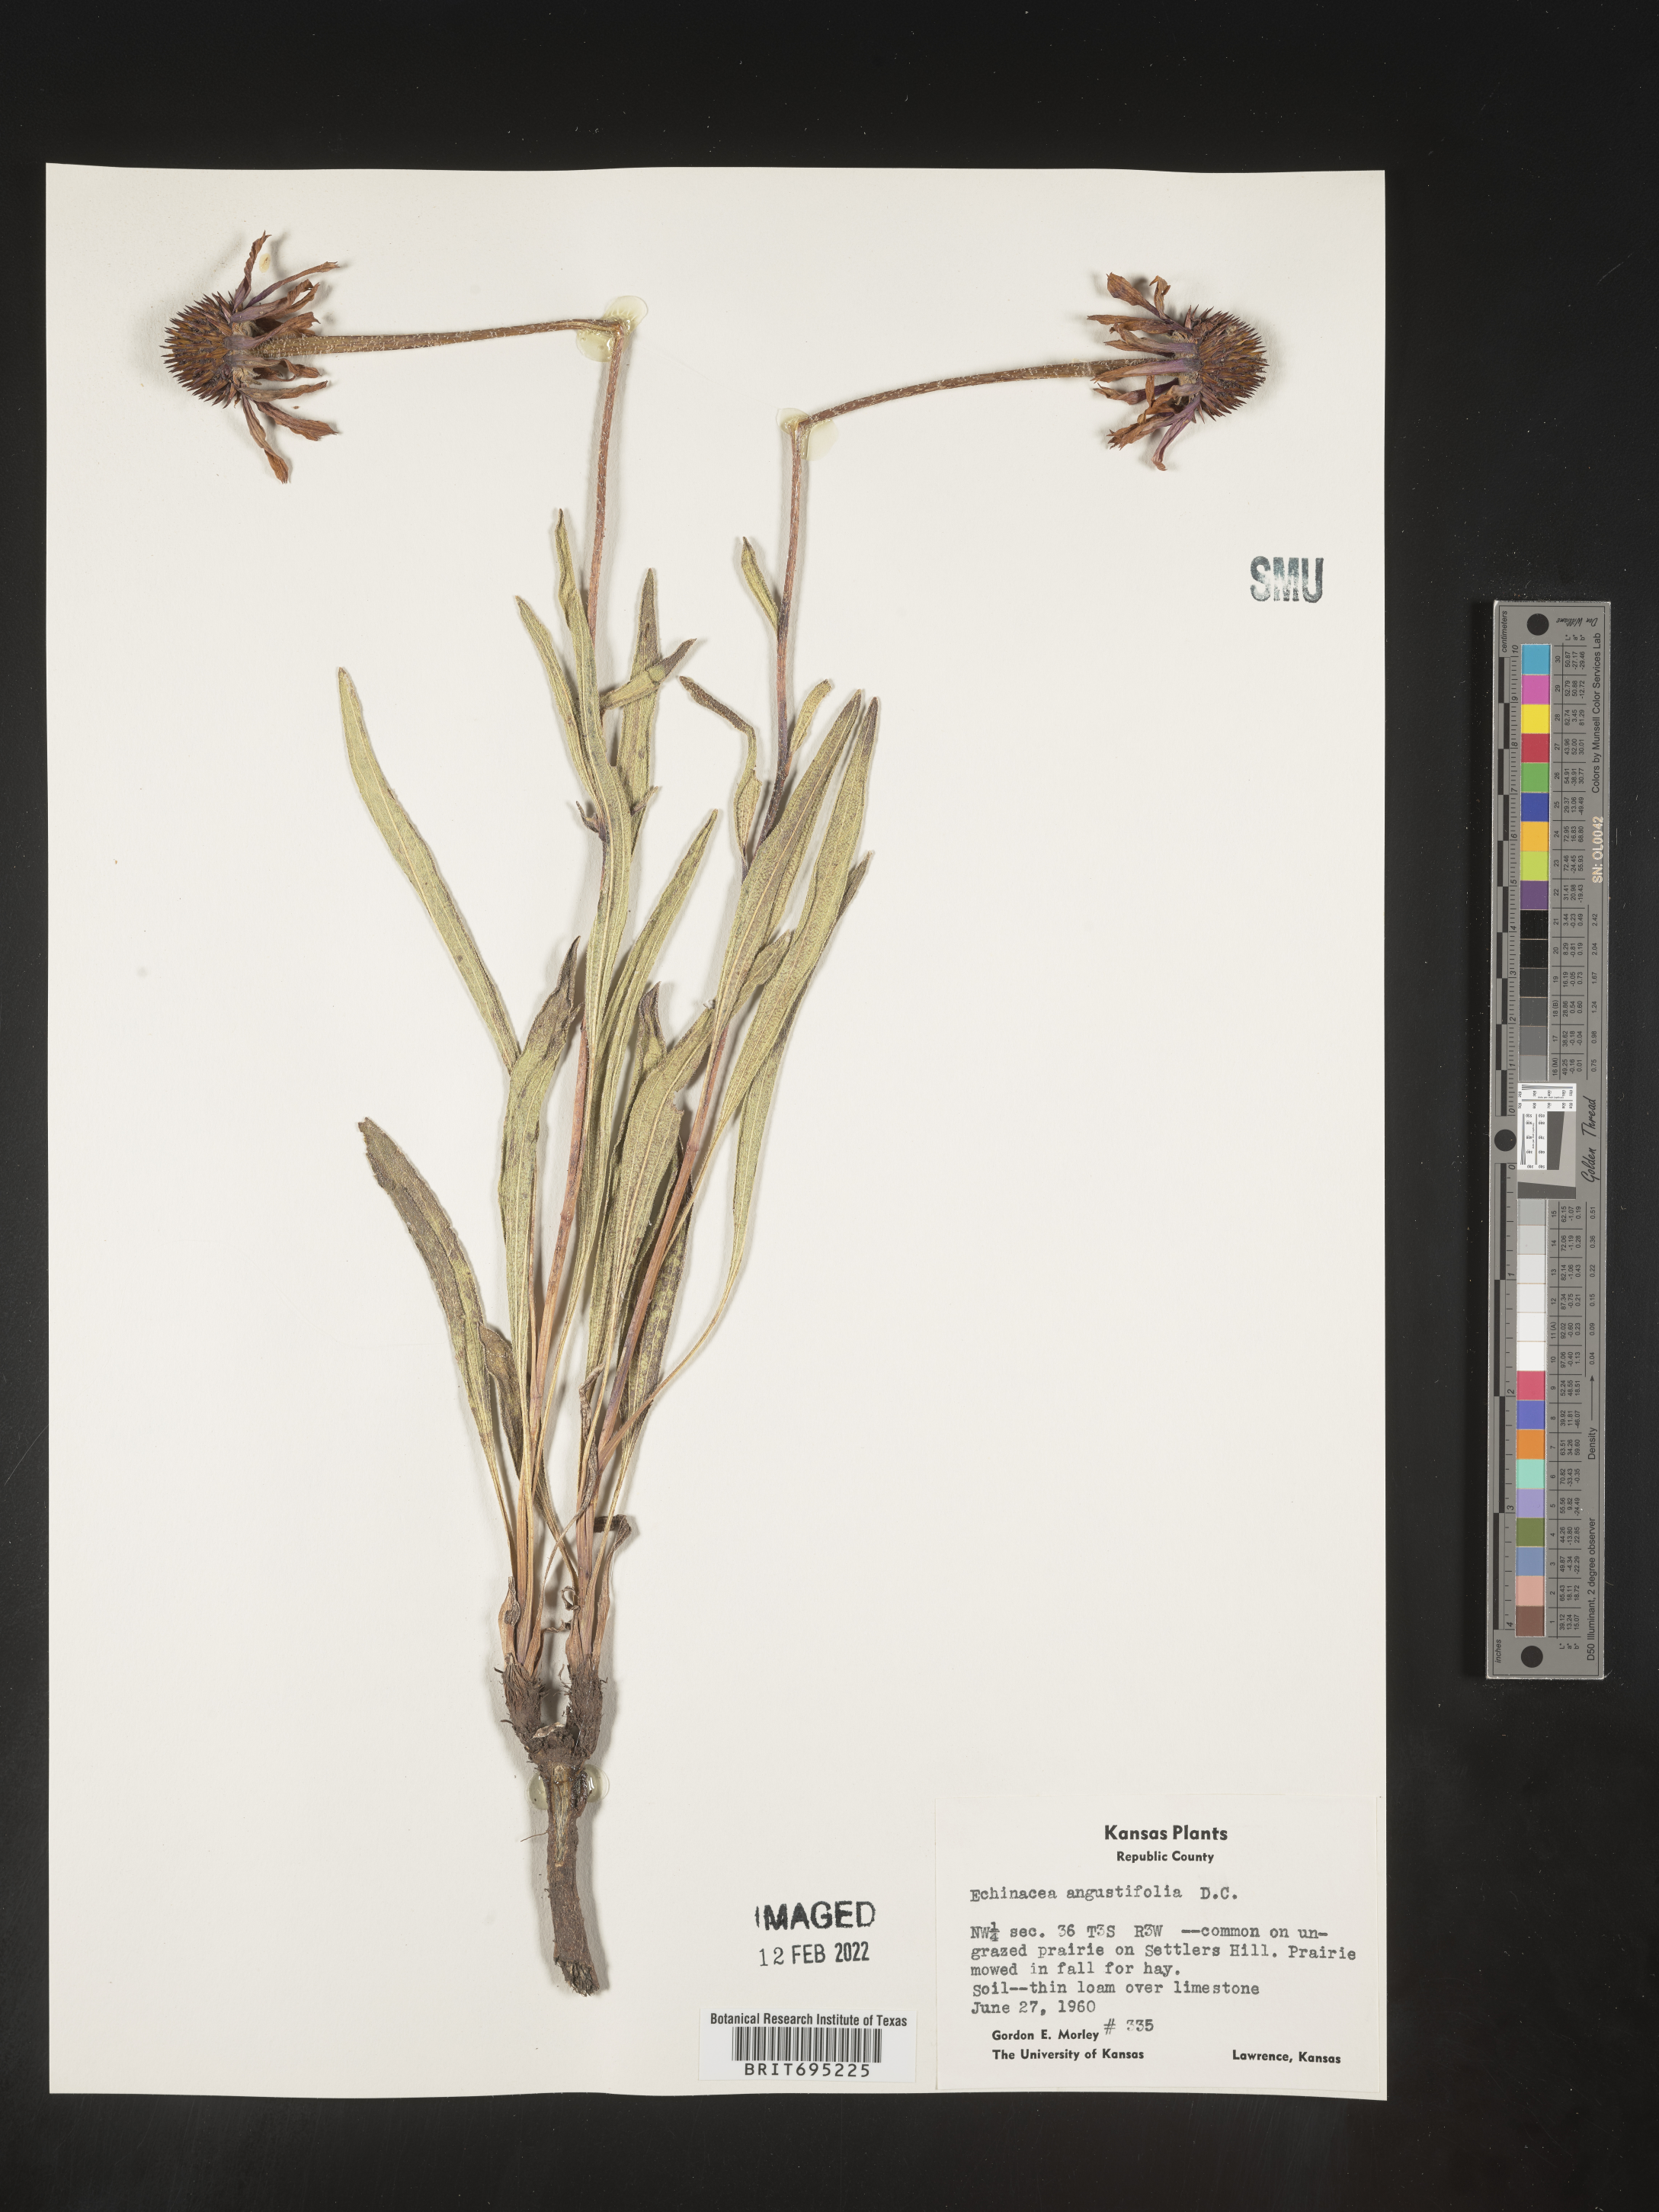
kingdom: Plantae
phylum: Tracheophyta
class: Magnoliopsida
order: Asterales
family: Asteraceae
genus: Echinacea
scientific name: Echinacea angustifolia
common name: Black-sampson echinacea
